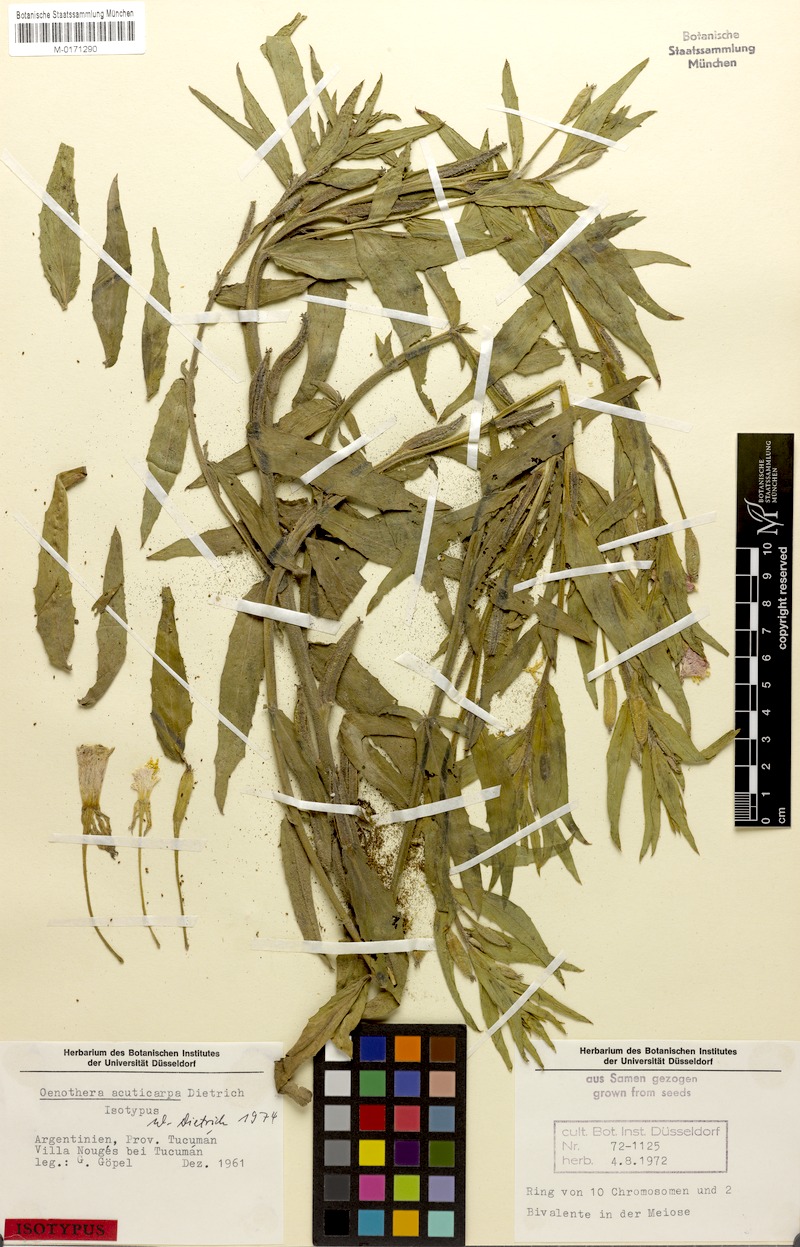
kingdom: Plantae
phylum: Tracheophyta
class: Magnoliopsida
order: Myrtales
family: Onagraceae
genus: Oenothera
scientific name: Oenothera siambonensis
